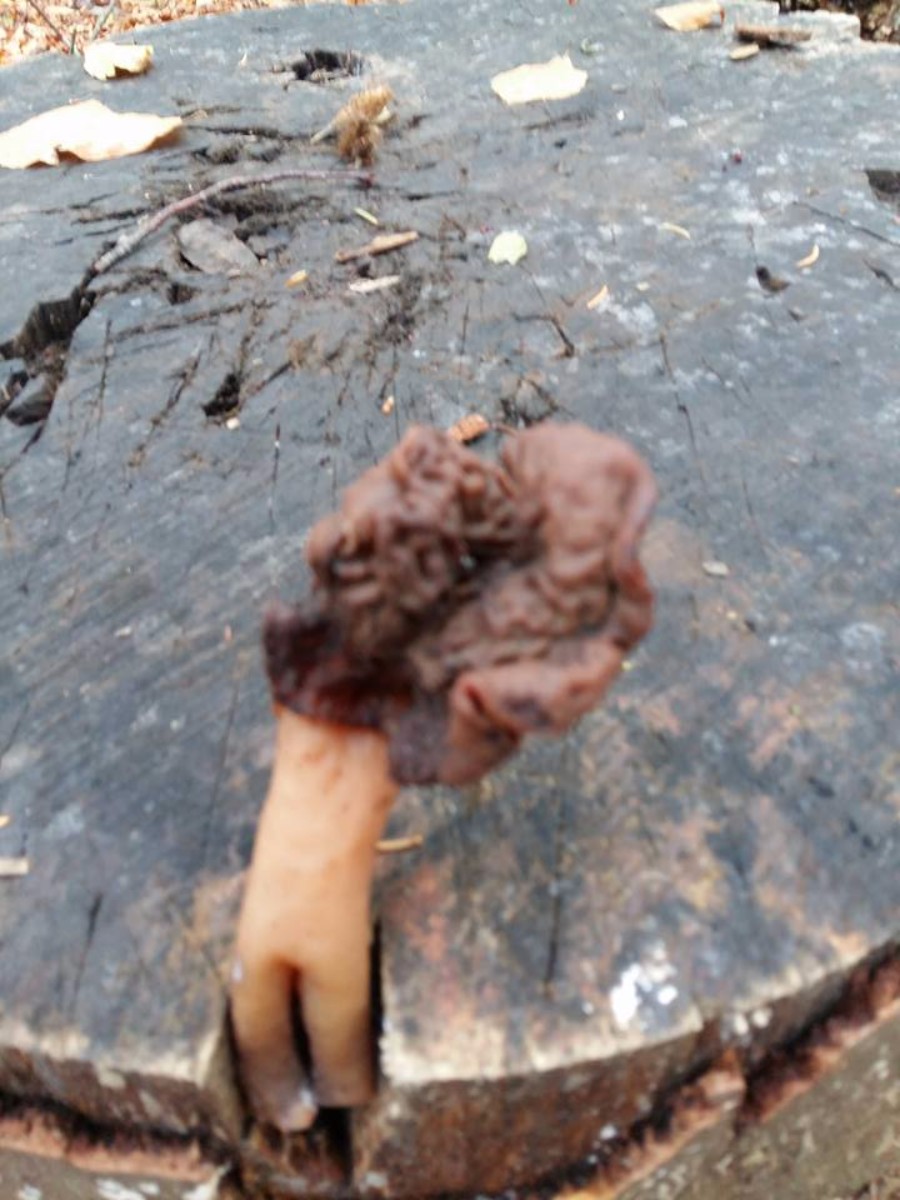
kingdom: Fungi
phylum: Ascomycota
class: Pezizomycetes
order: Pezizales
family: Discinaceae
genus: Gyromitra
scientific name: Gyromitra
